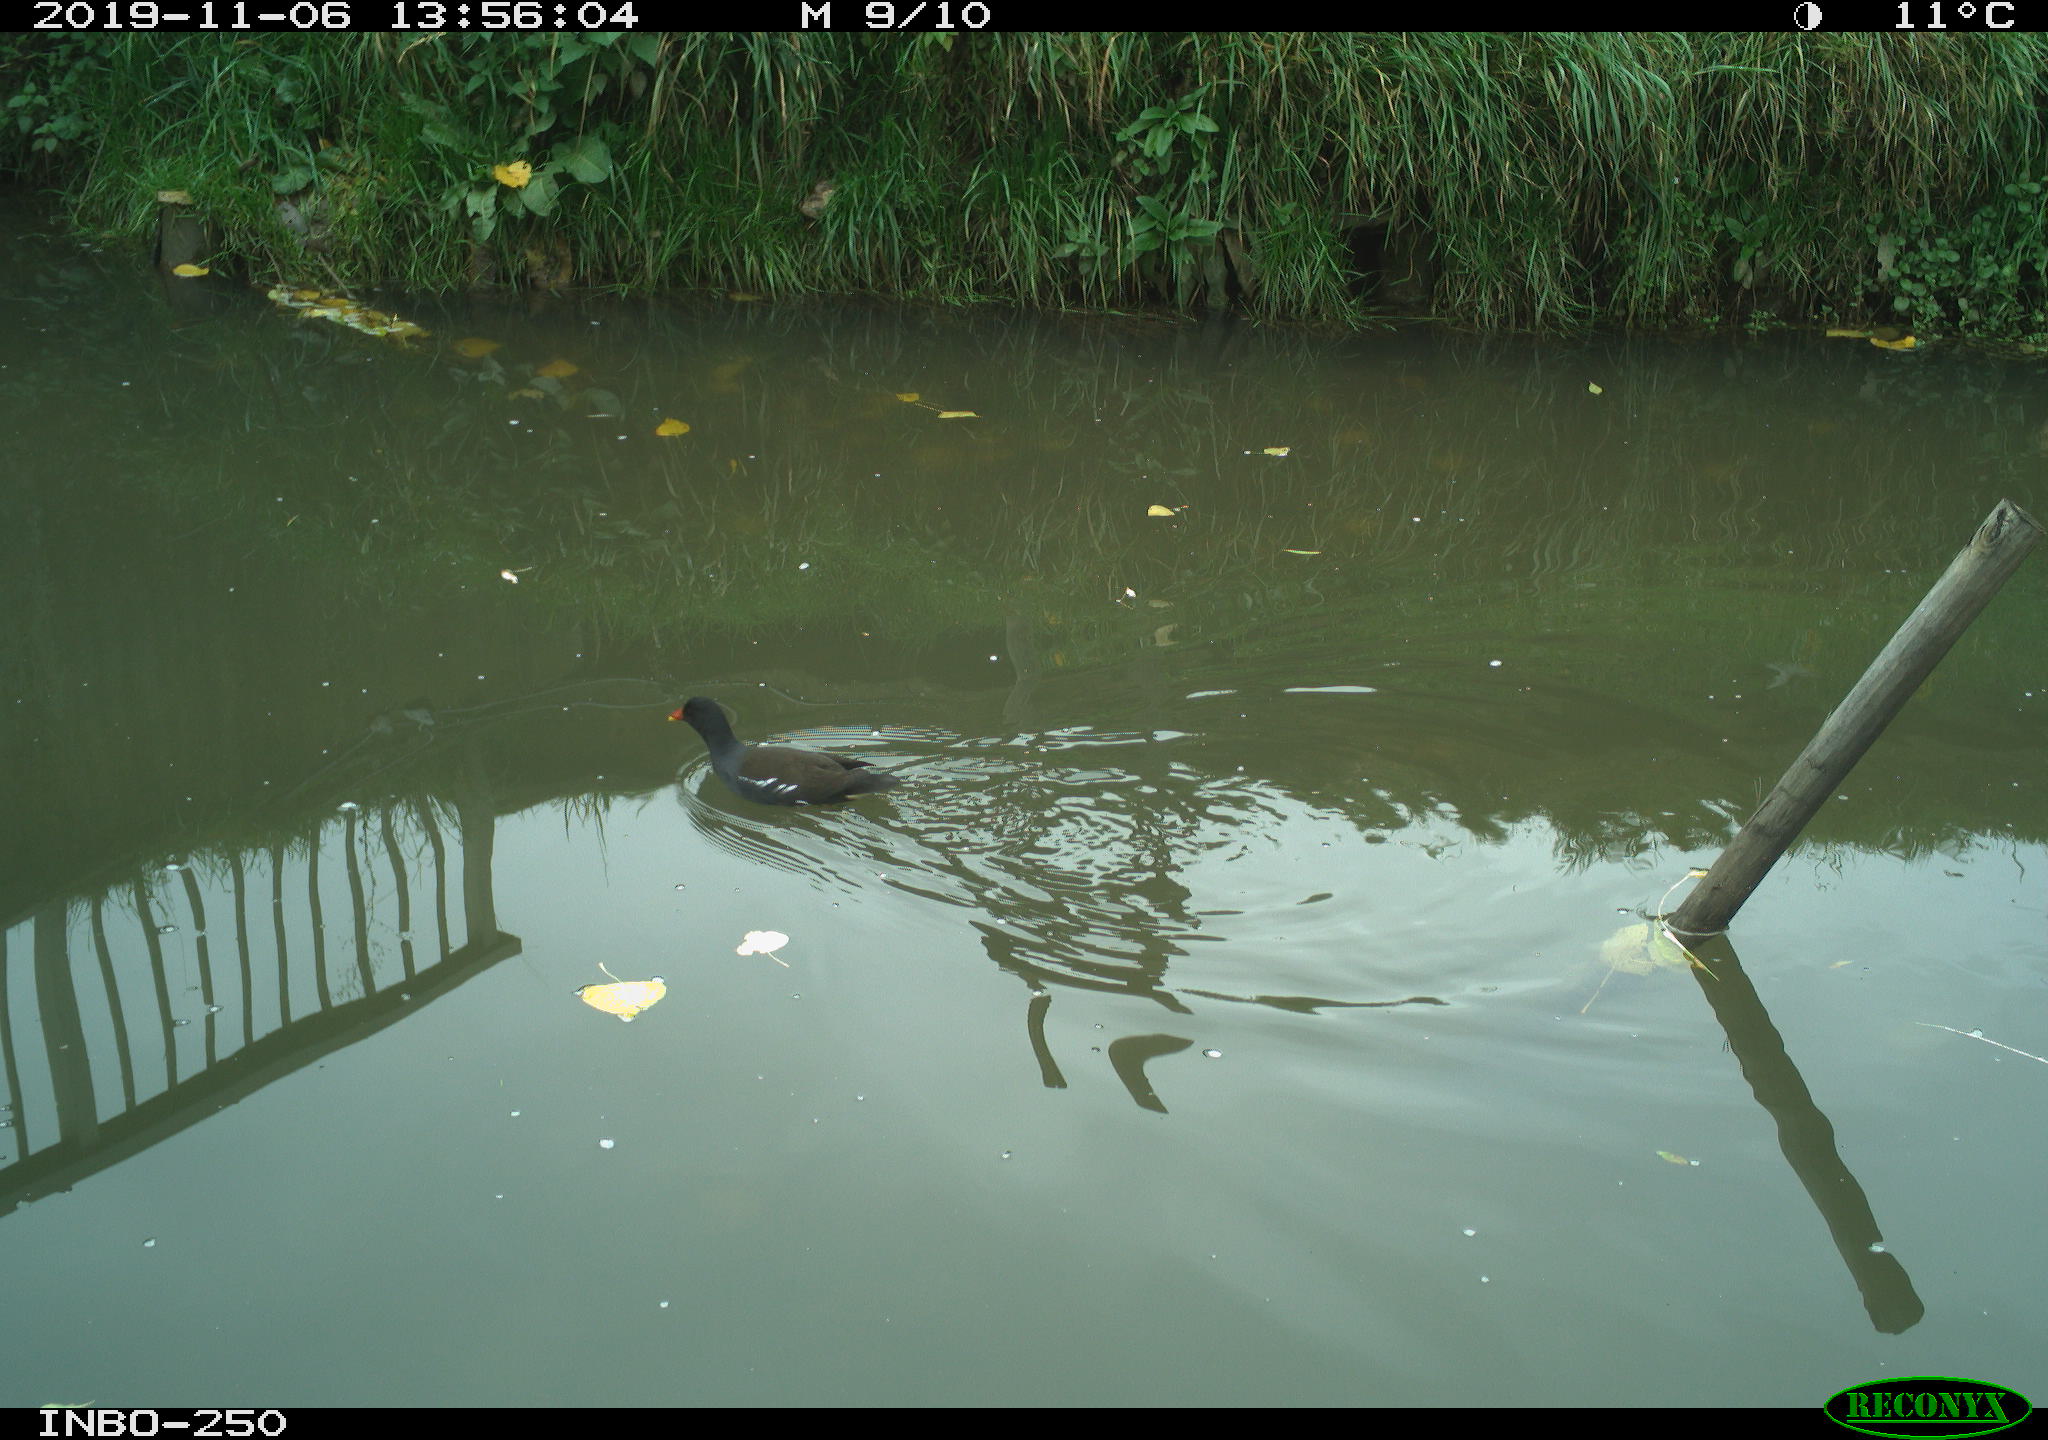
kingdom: Animalia
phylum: Chordata
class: Aves
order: Gruiformes
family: Rallidae
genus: Gallinula
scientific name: Gallinula chloropus
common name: Common moorhen
